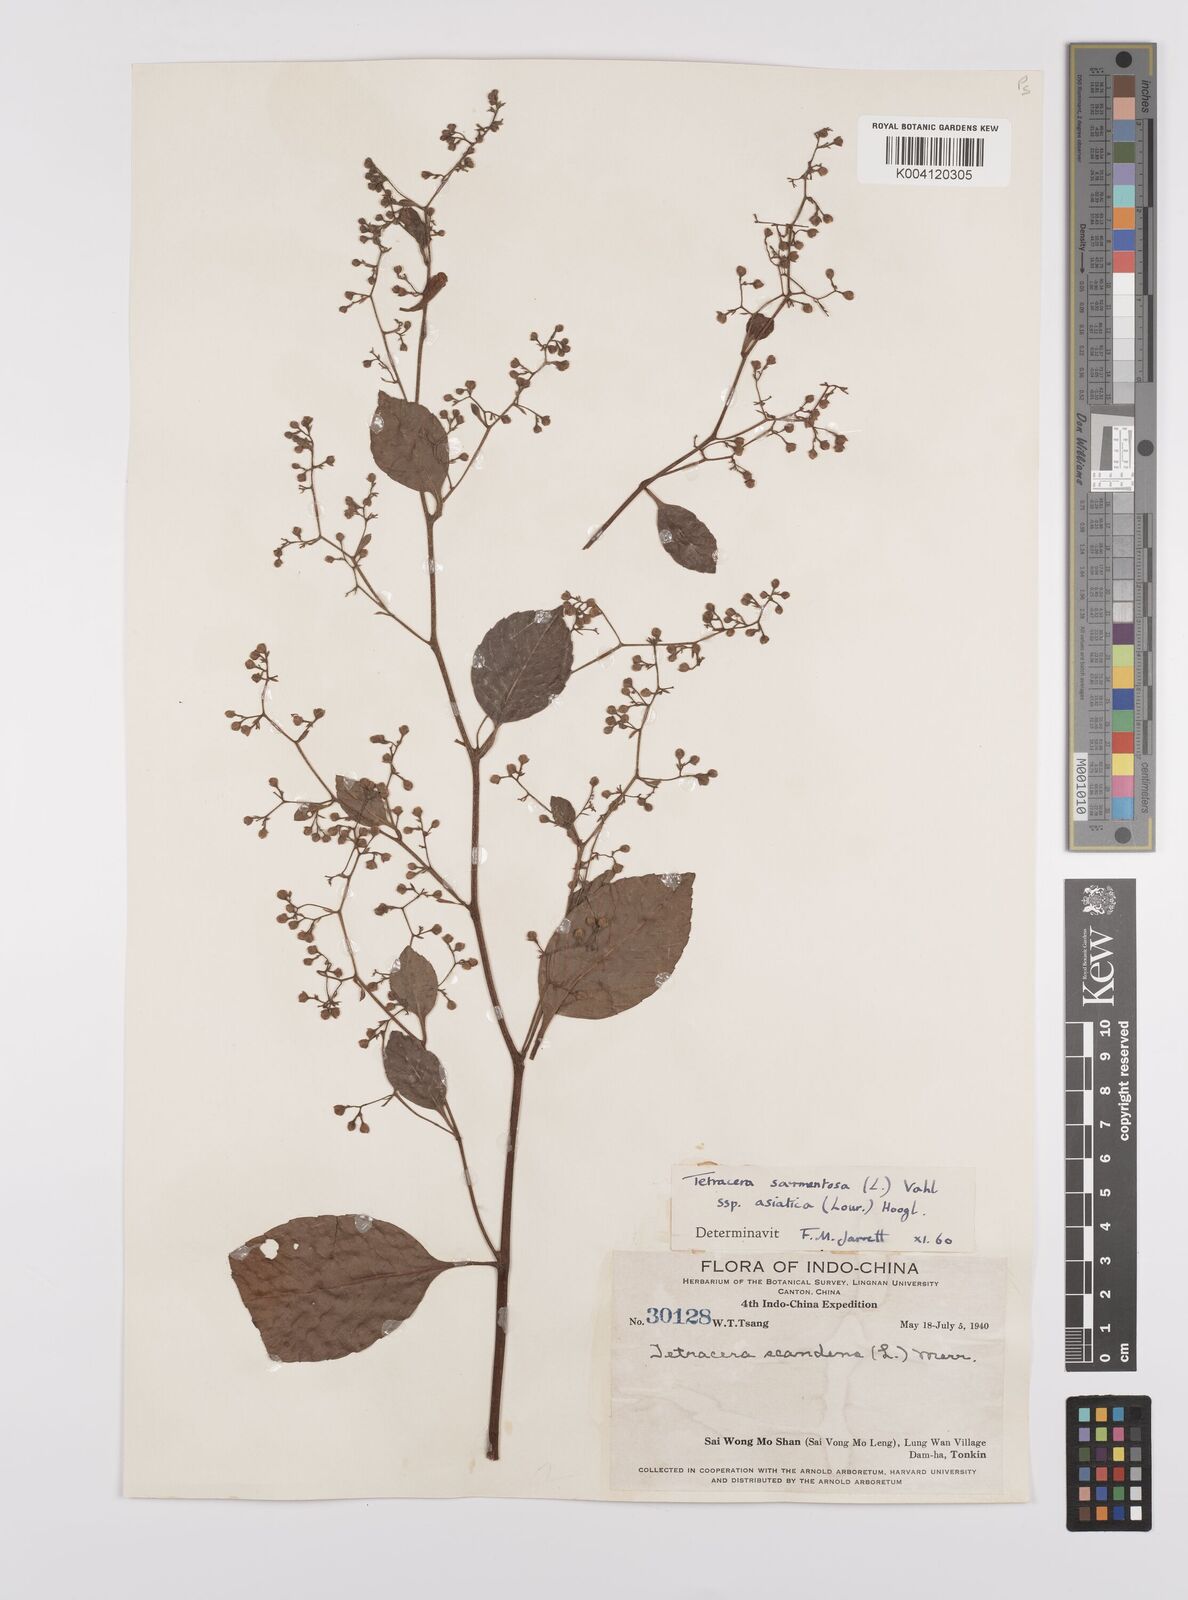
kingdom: Plantae
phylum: Tracheophyta
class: Magnoliopsida
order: Dilleniales
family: Dilleniaceae
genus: Tetracera
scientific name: Tetracera sarmentosa
